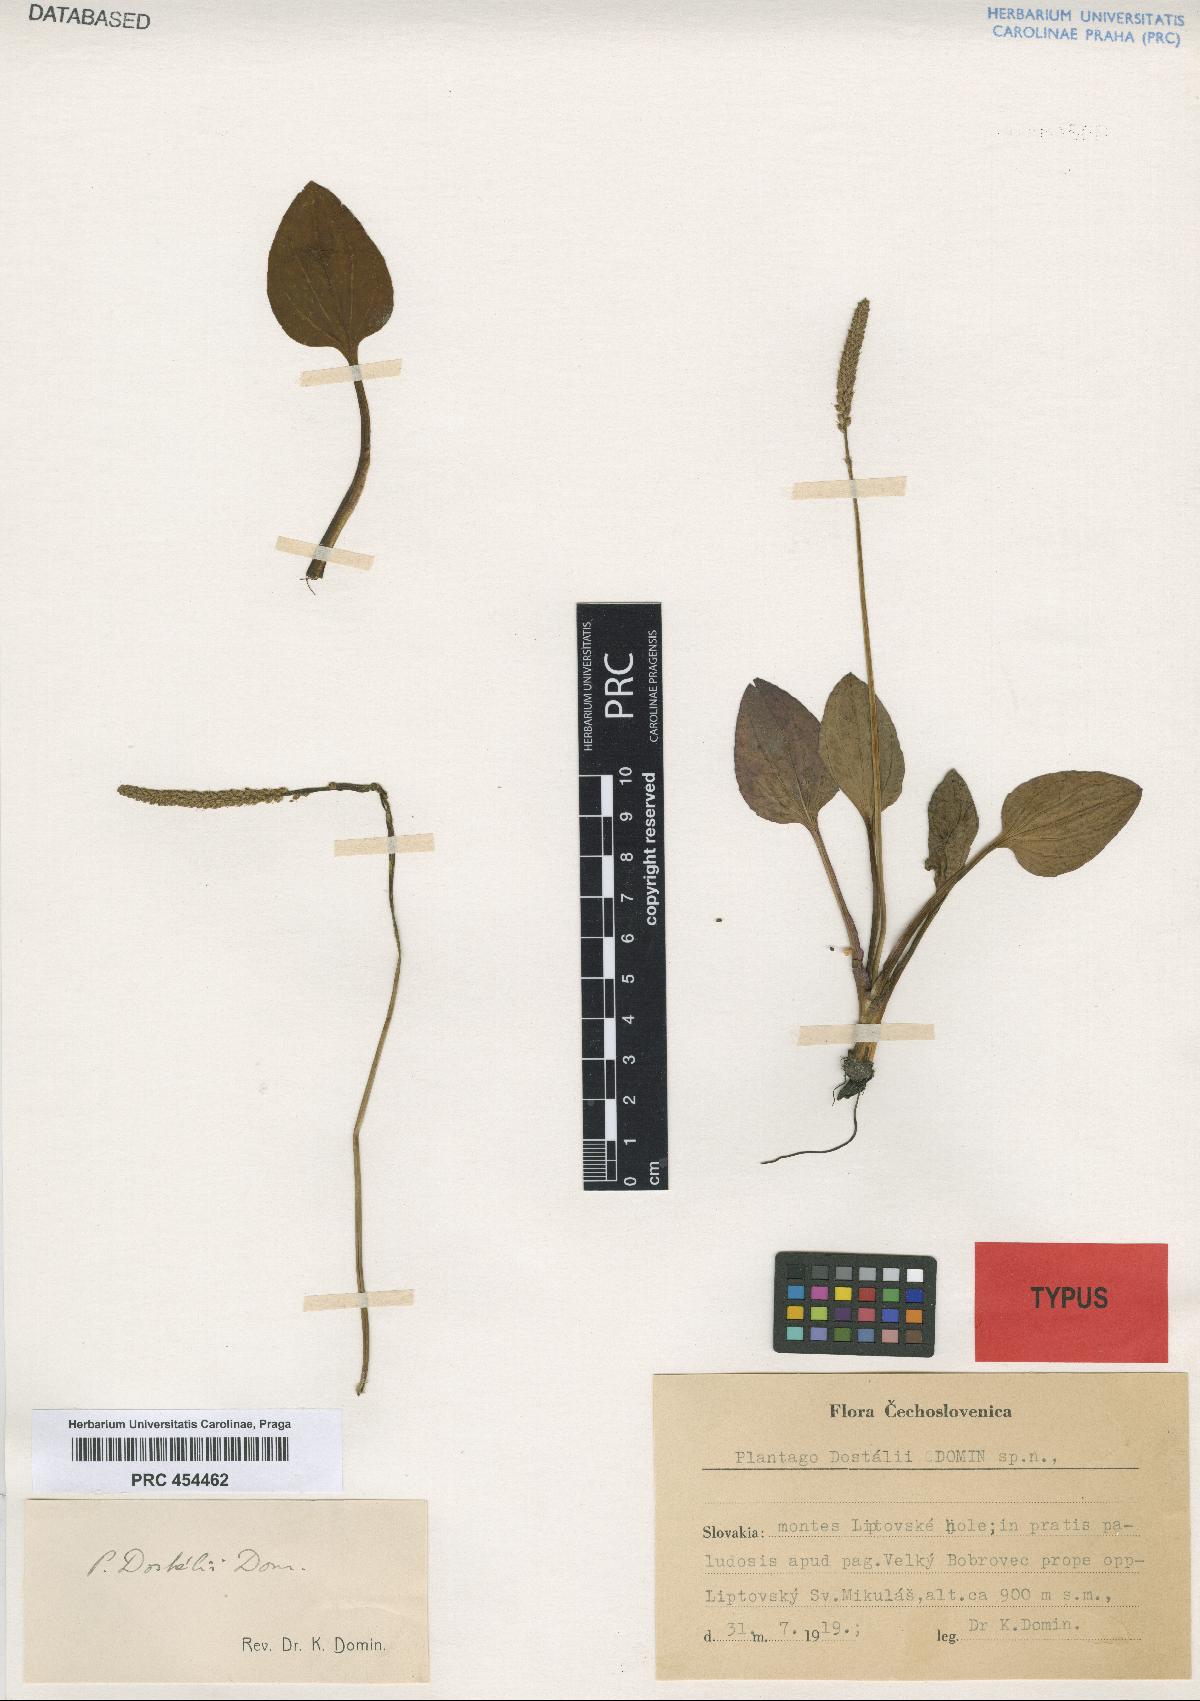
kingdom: Plantae
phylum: Tracheophyta
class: Magnoliopsida
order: Lamiales
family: Plantaginaceae
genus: Plantago
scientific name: Plantago major
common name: Common plantain
